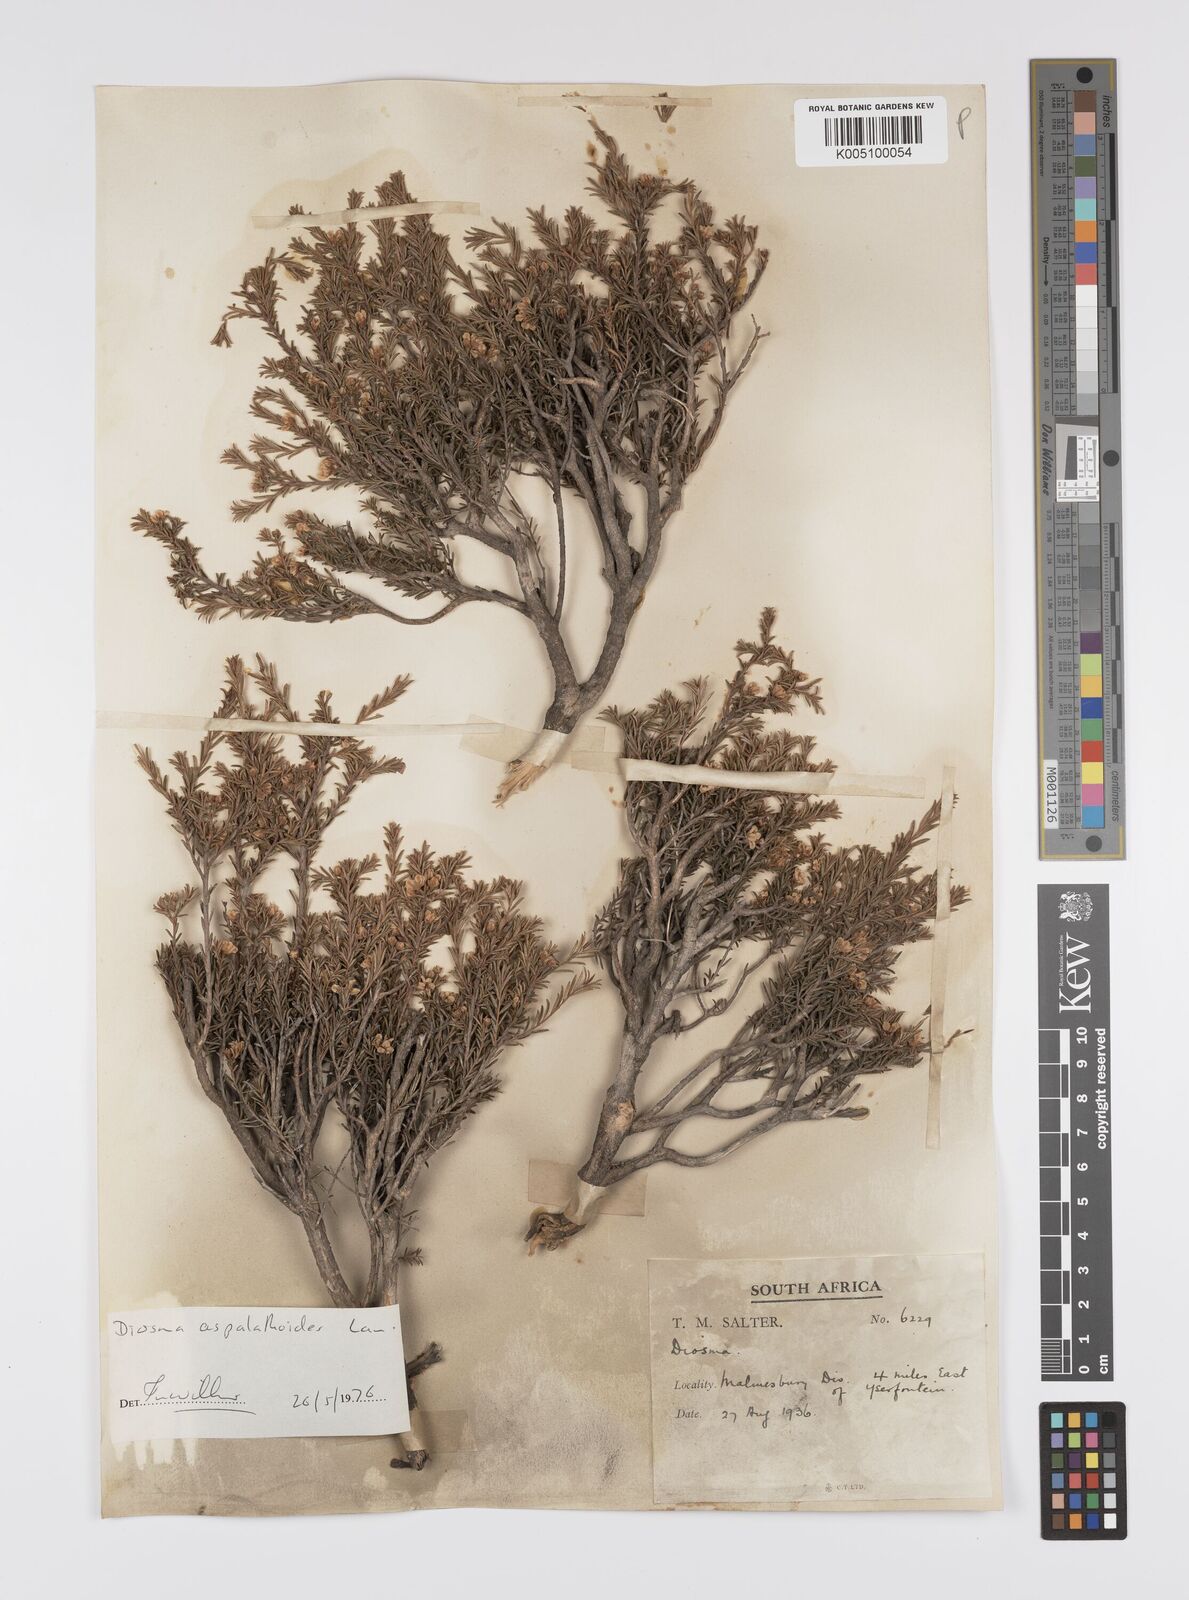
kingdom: Plantae
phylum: Tracheophyta
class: Magnoliopsida
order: Sapindales
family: Rutaceae
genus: Diosma
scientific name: Diosma aspalathoides
